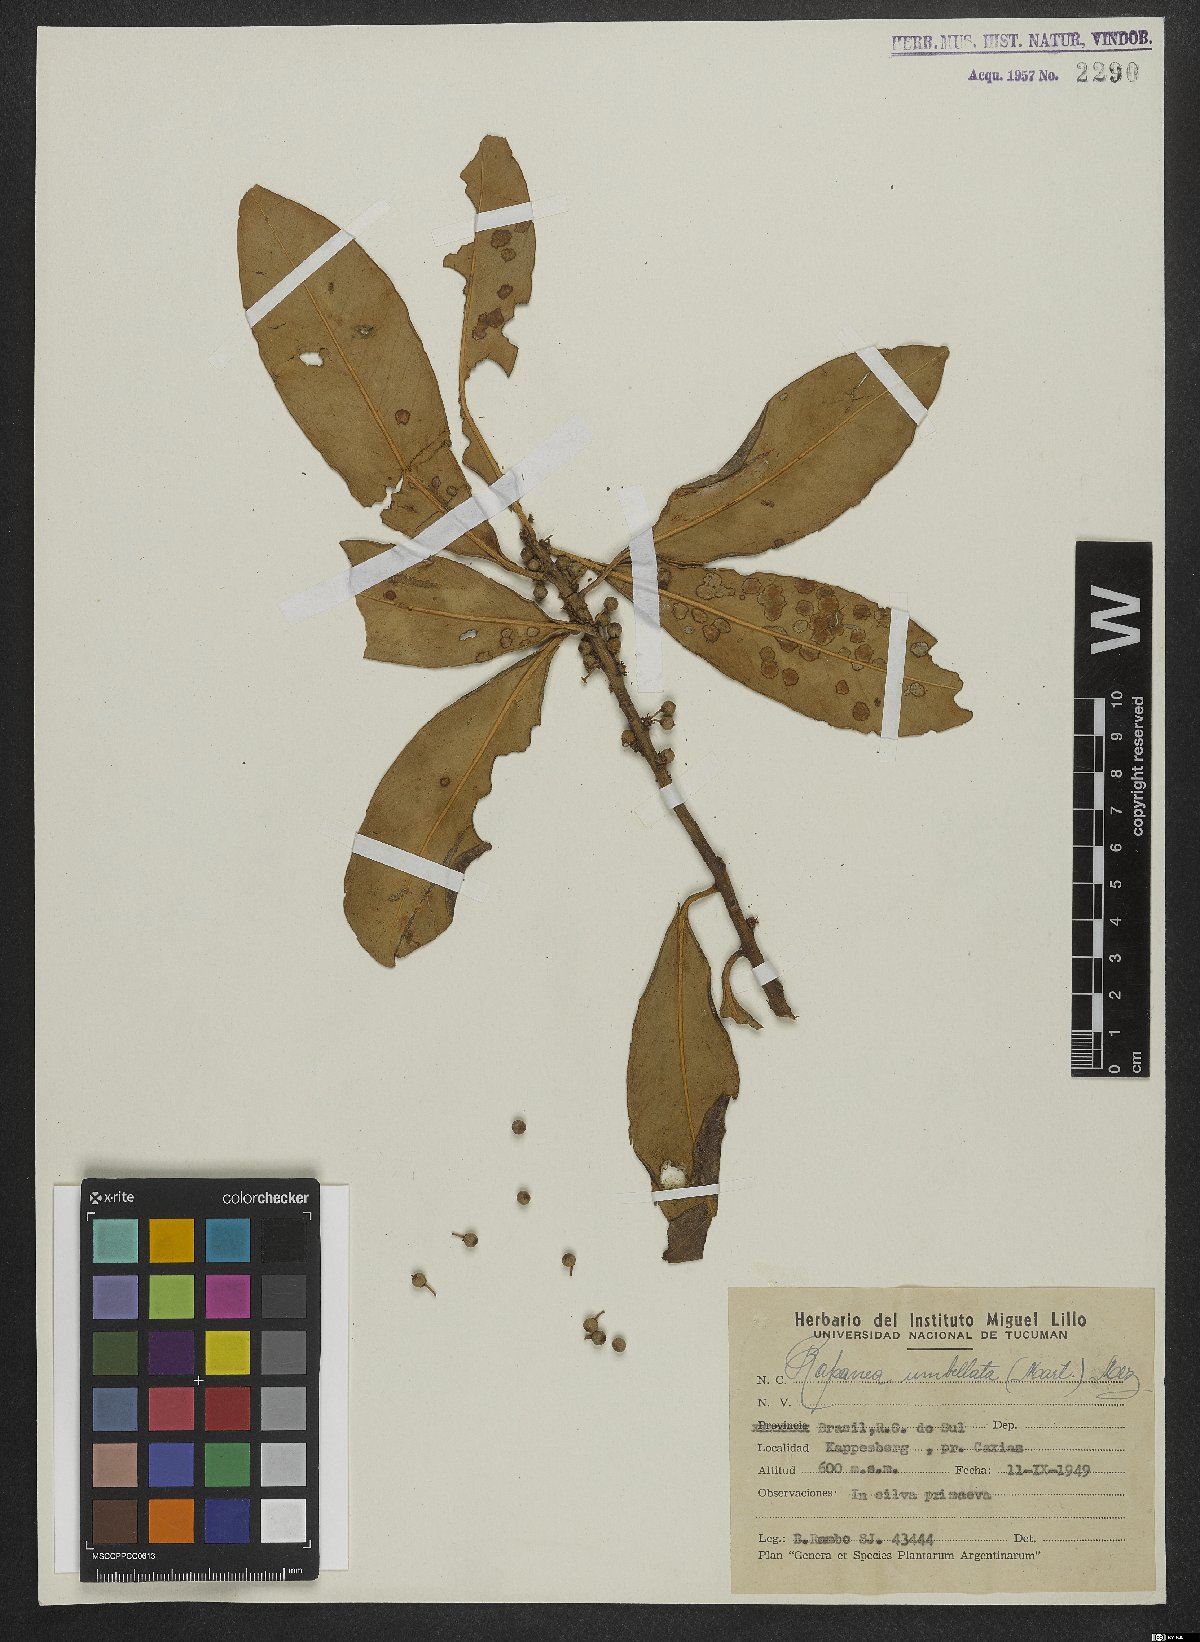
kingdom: Plantae
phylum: Tracheophyta
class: Magnoliopsida
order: Ericales
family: Primulaceae
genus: Myrsine
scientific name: Myrsine umbellata
